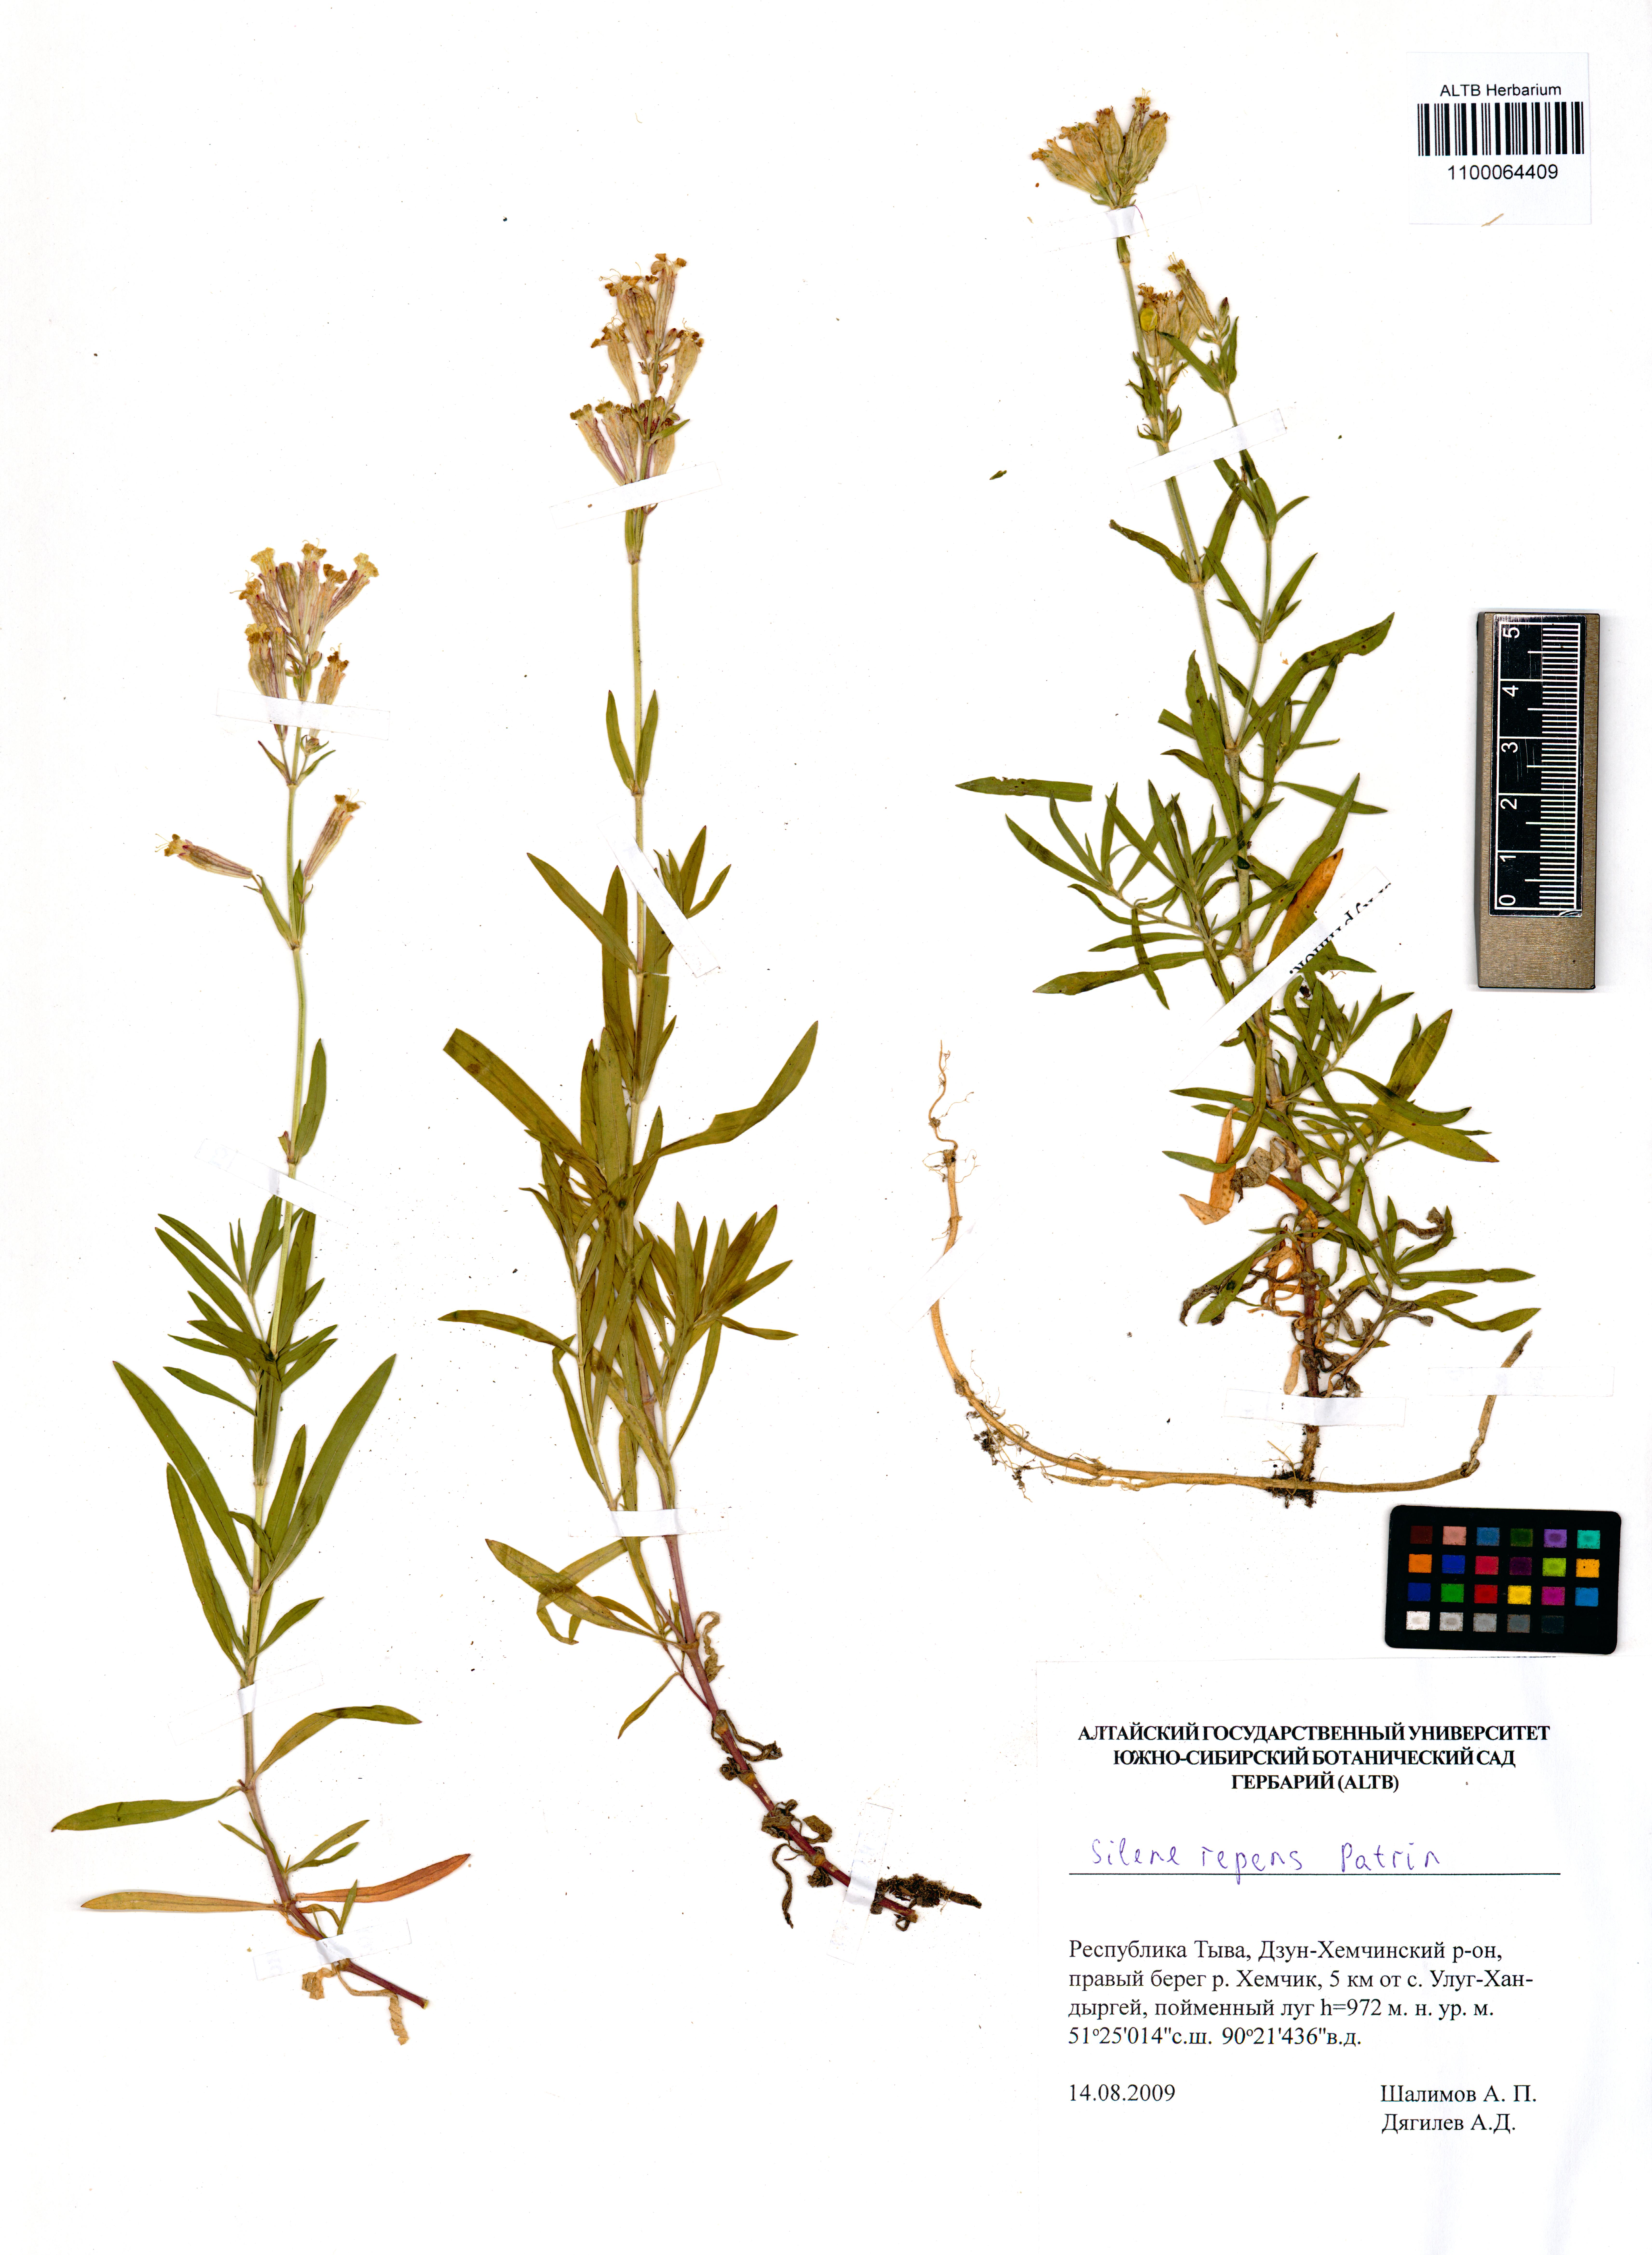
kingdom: Plantae
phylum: Tracheophyta
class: Magnoliopsida
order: Caryophyllales
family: Caryophyllaceae
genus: Silene
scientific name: Silene repens
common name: Pink campion
